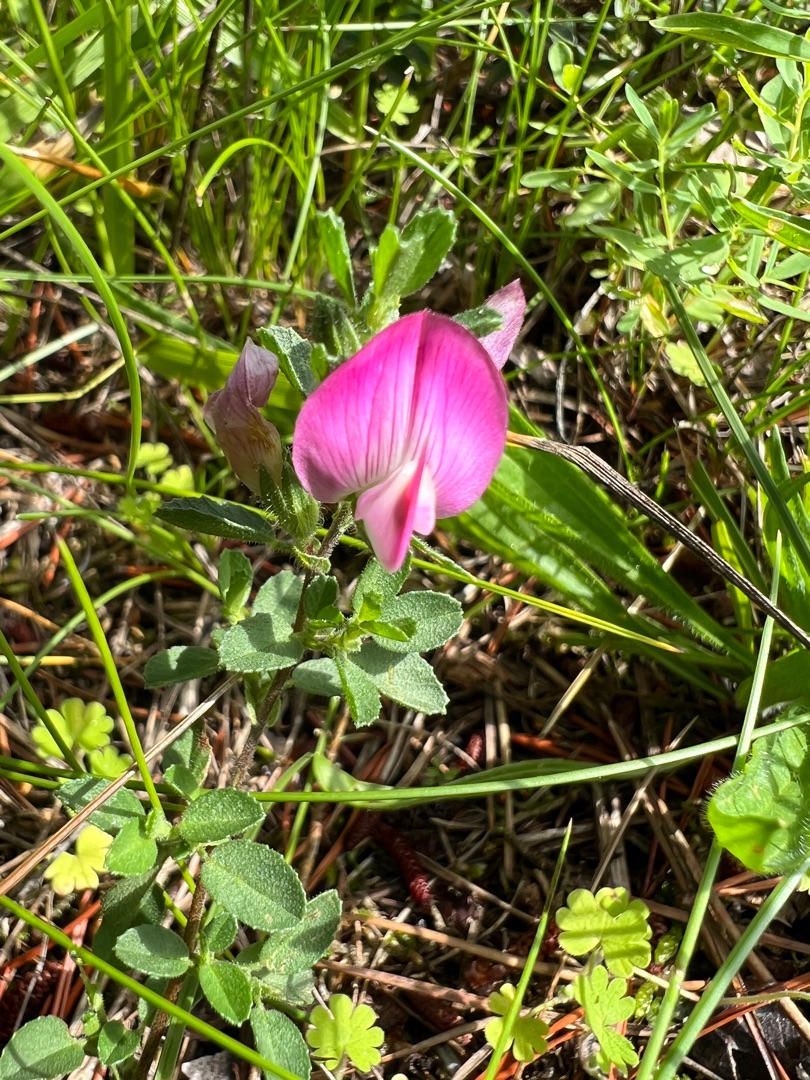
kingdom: Plantae
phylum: Tracheophyta
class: Magnoliopsida
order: Fabales
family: Fabaceae
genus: Ononis
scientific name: Ononis spinosa
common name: Mark-krageklo
